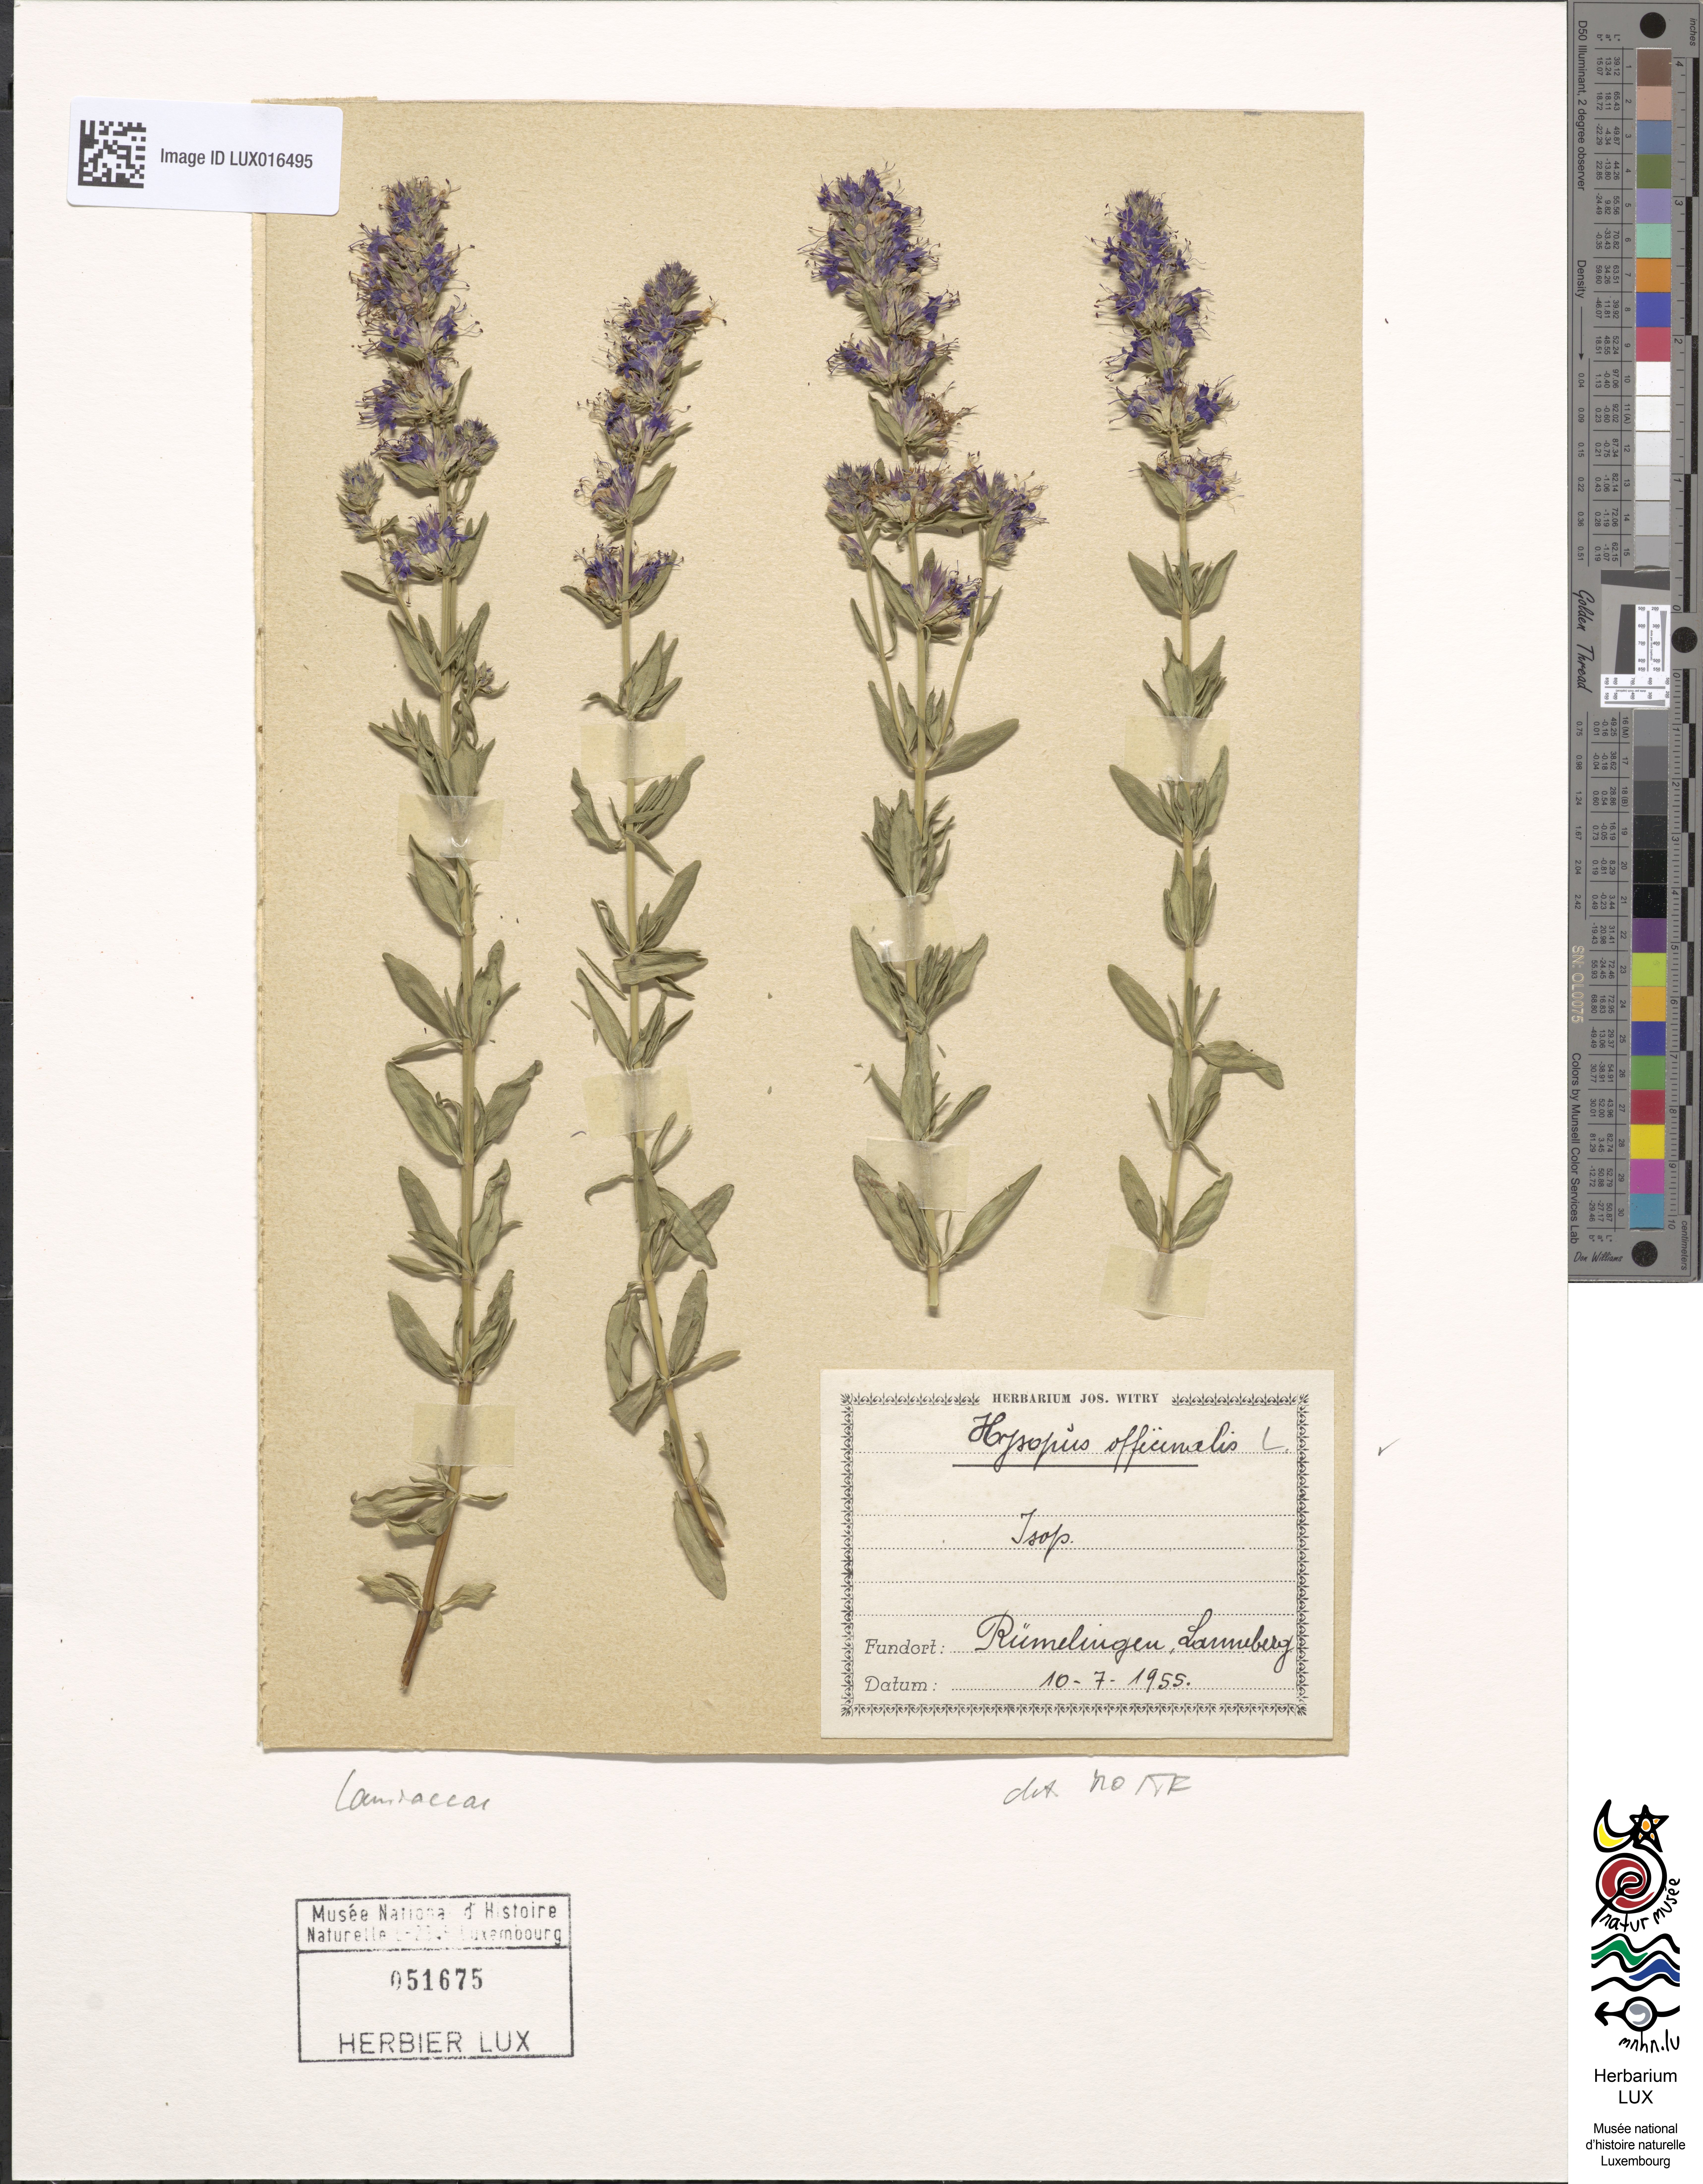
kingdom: Plantae
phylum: Tracheophyta
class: Magnoliopsida
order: Lamiales
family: Lamiaceae
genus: Hyssopus
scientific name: Hyssopus officinalis
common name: Hyssop
